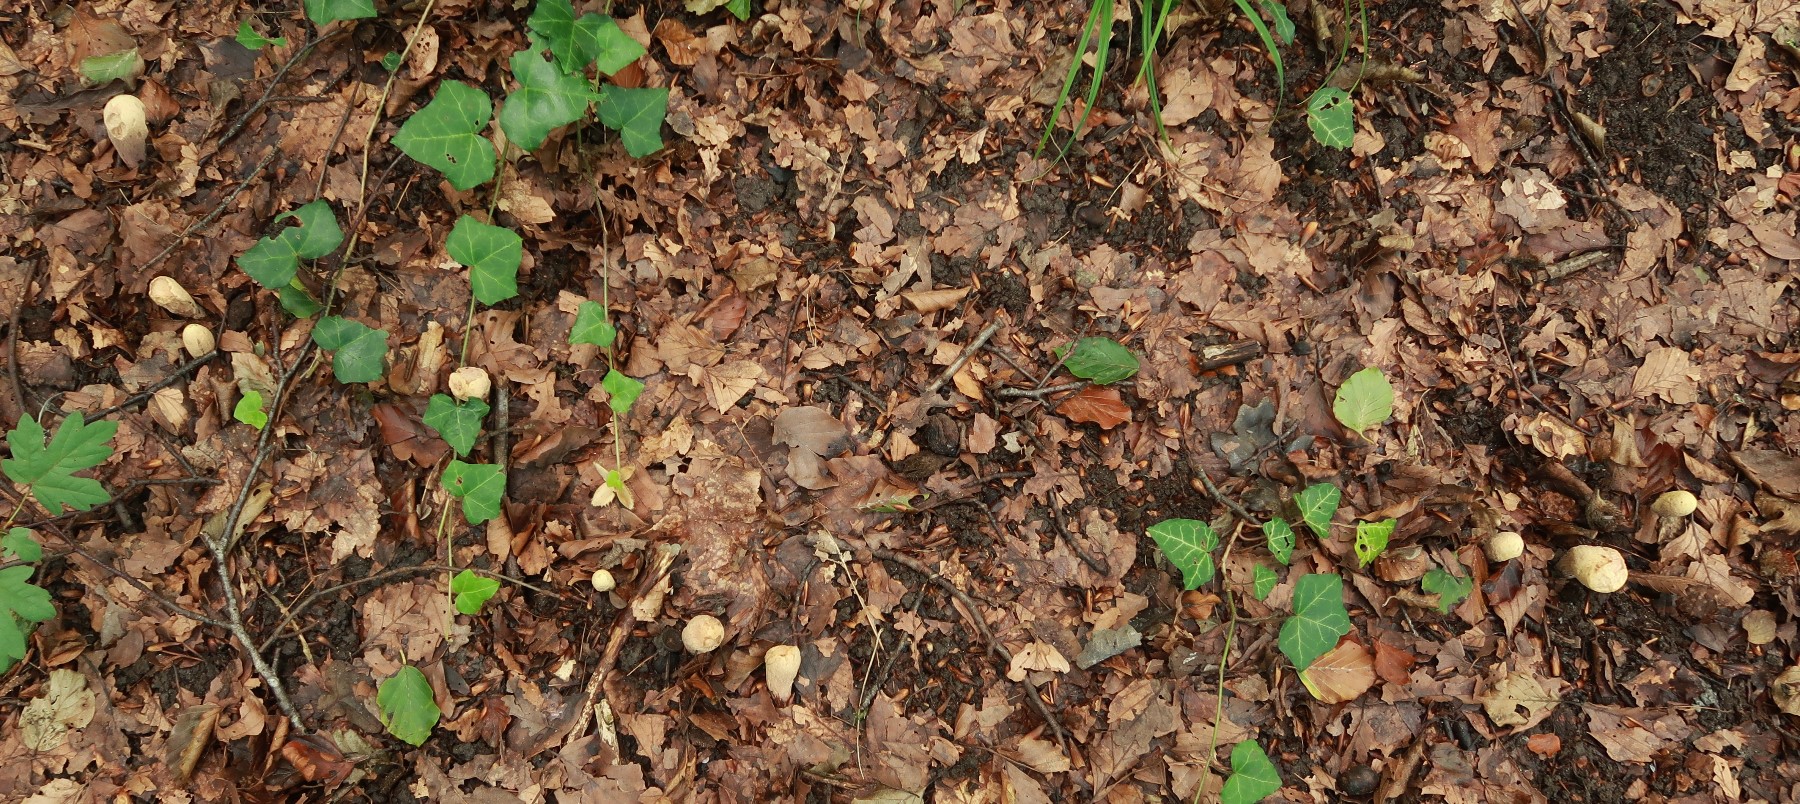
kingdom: Fungi
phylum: Basidiomycota
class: Agaricomycetes
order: Gomphales
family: Clavariadelphaceae
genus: Clavariadelphus
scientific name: Clavariadelphus pistillaris
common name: herkules-kæmpekølle
